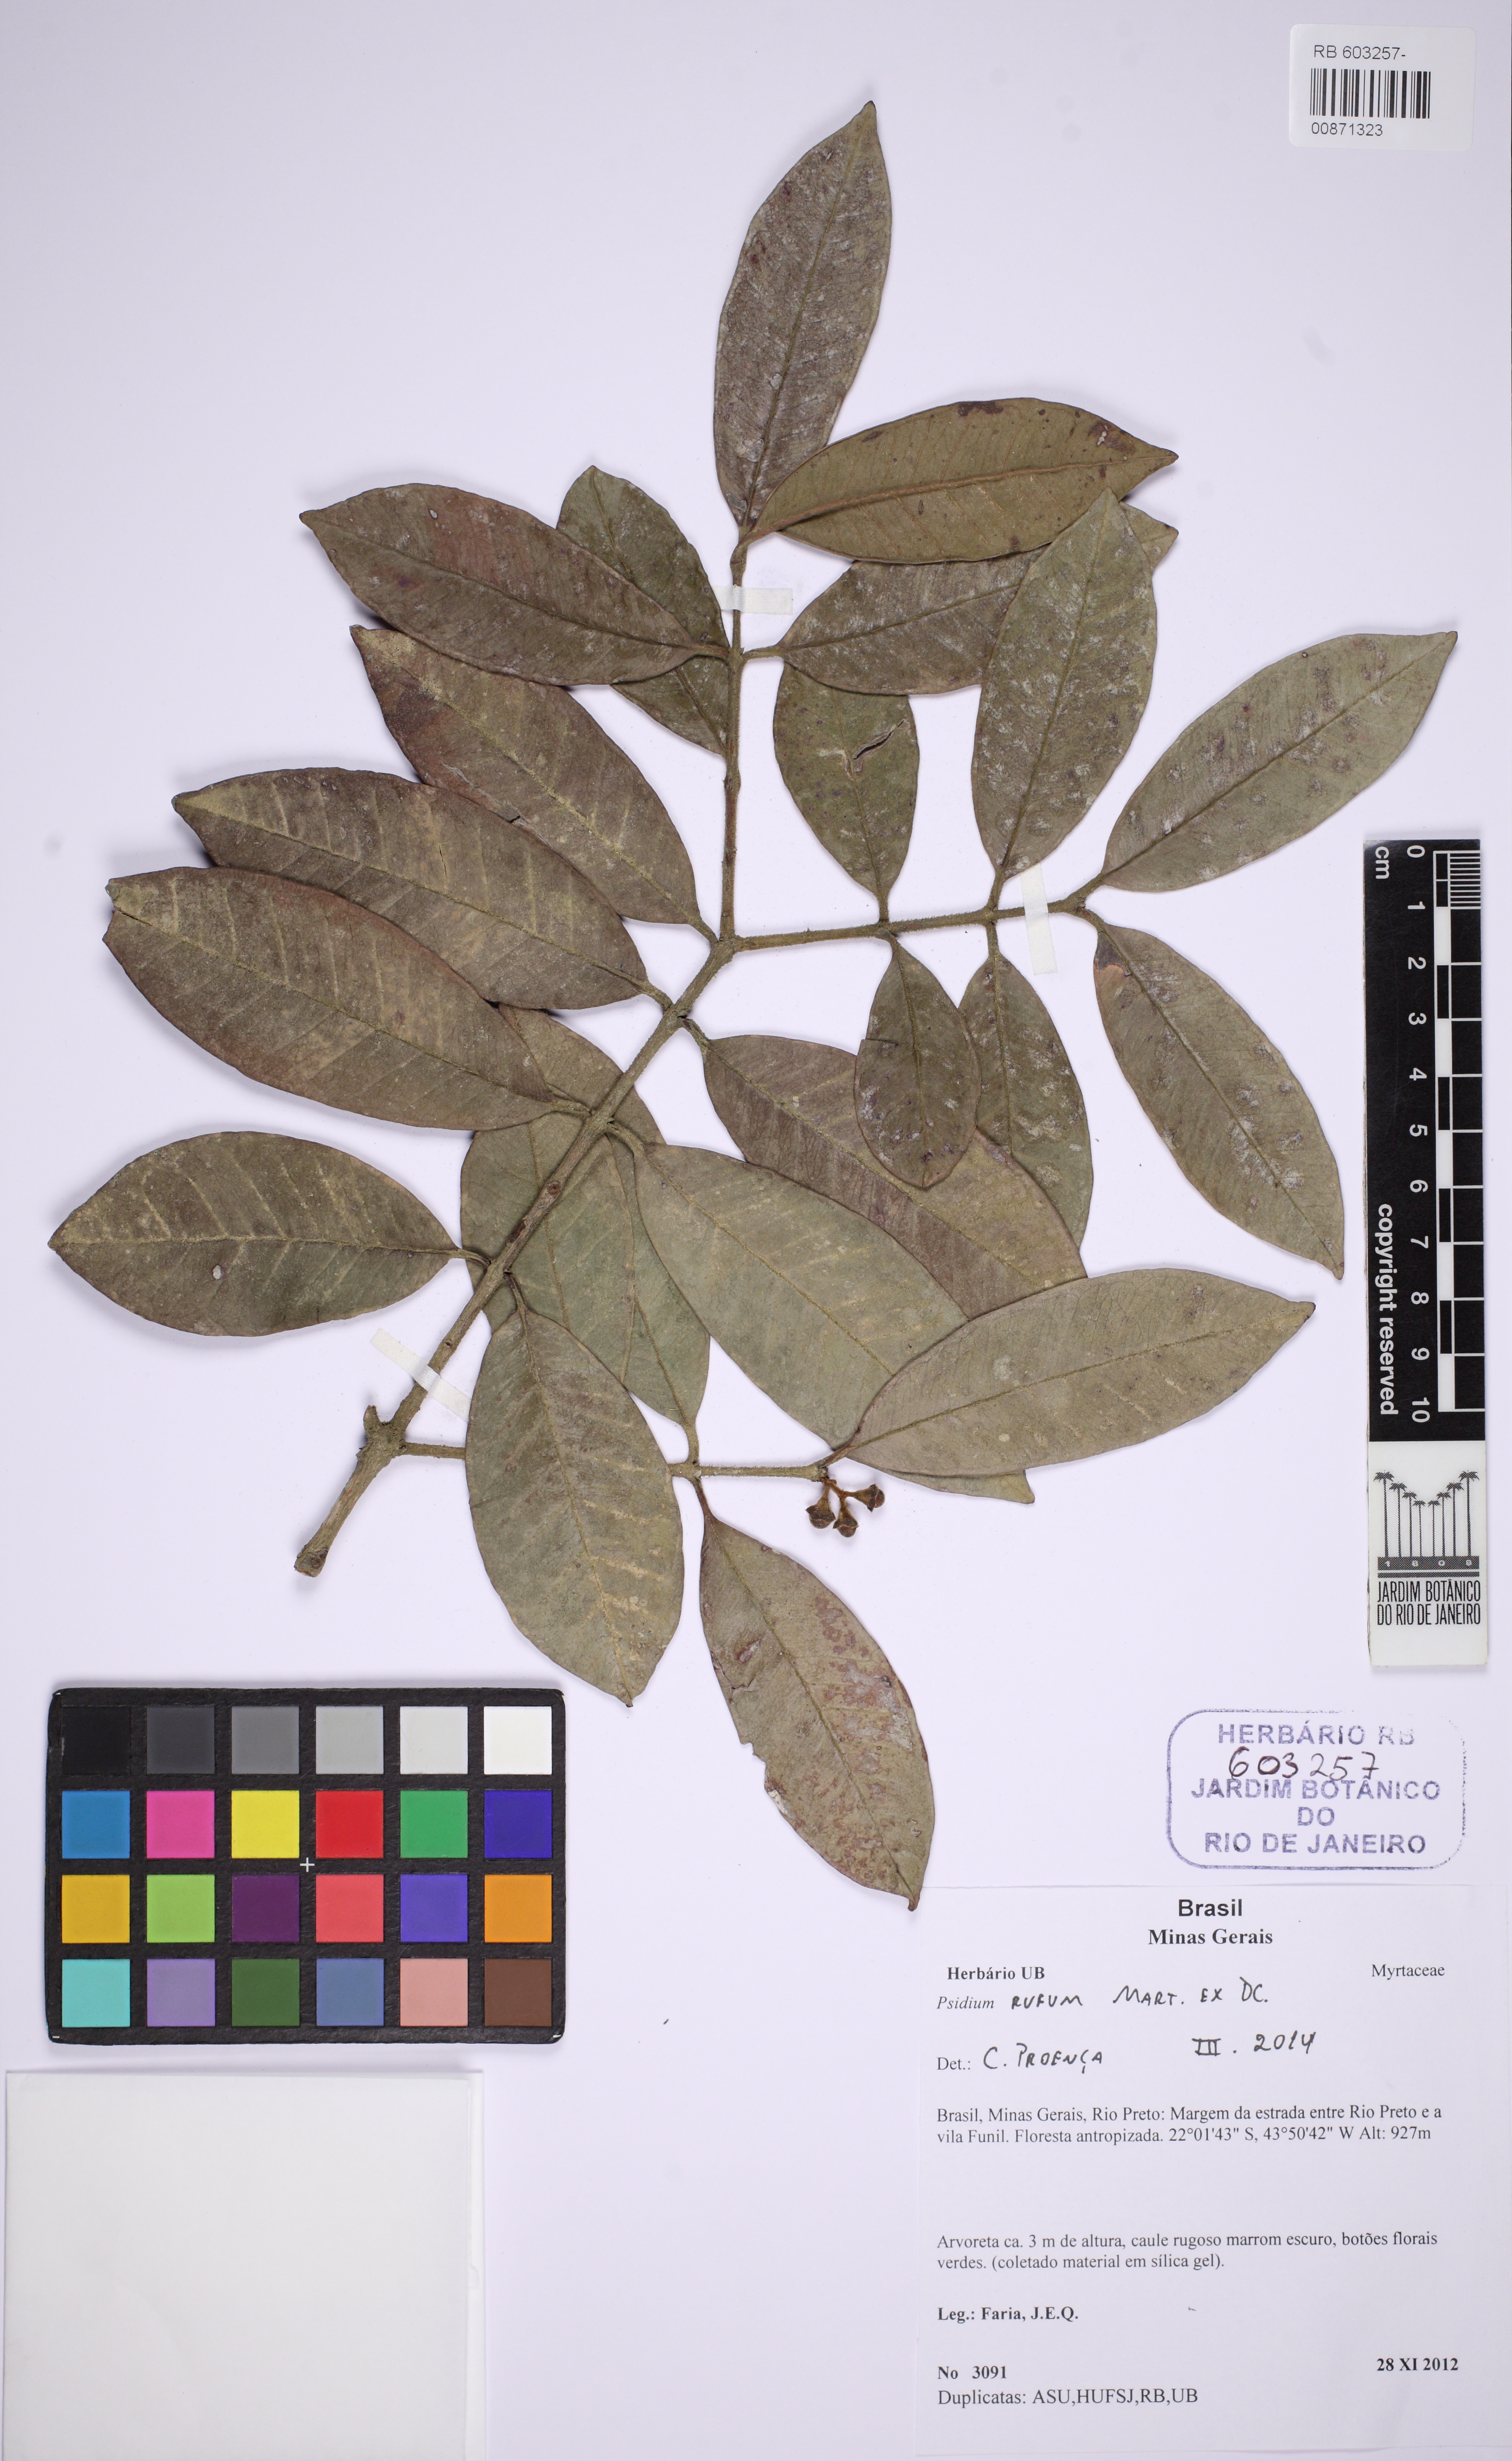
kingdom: Plantae
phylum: Tracheophyta
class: Magnoliopsida
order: Myrtales
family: Myrtaceae
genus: Psidium
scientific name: Psidium rufum
